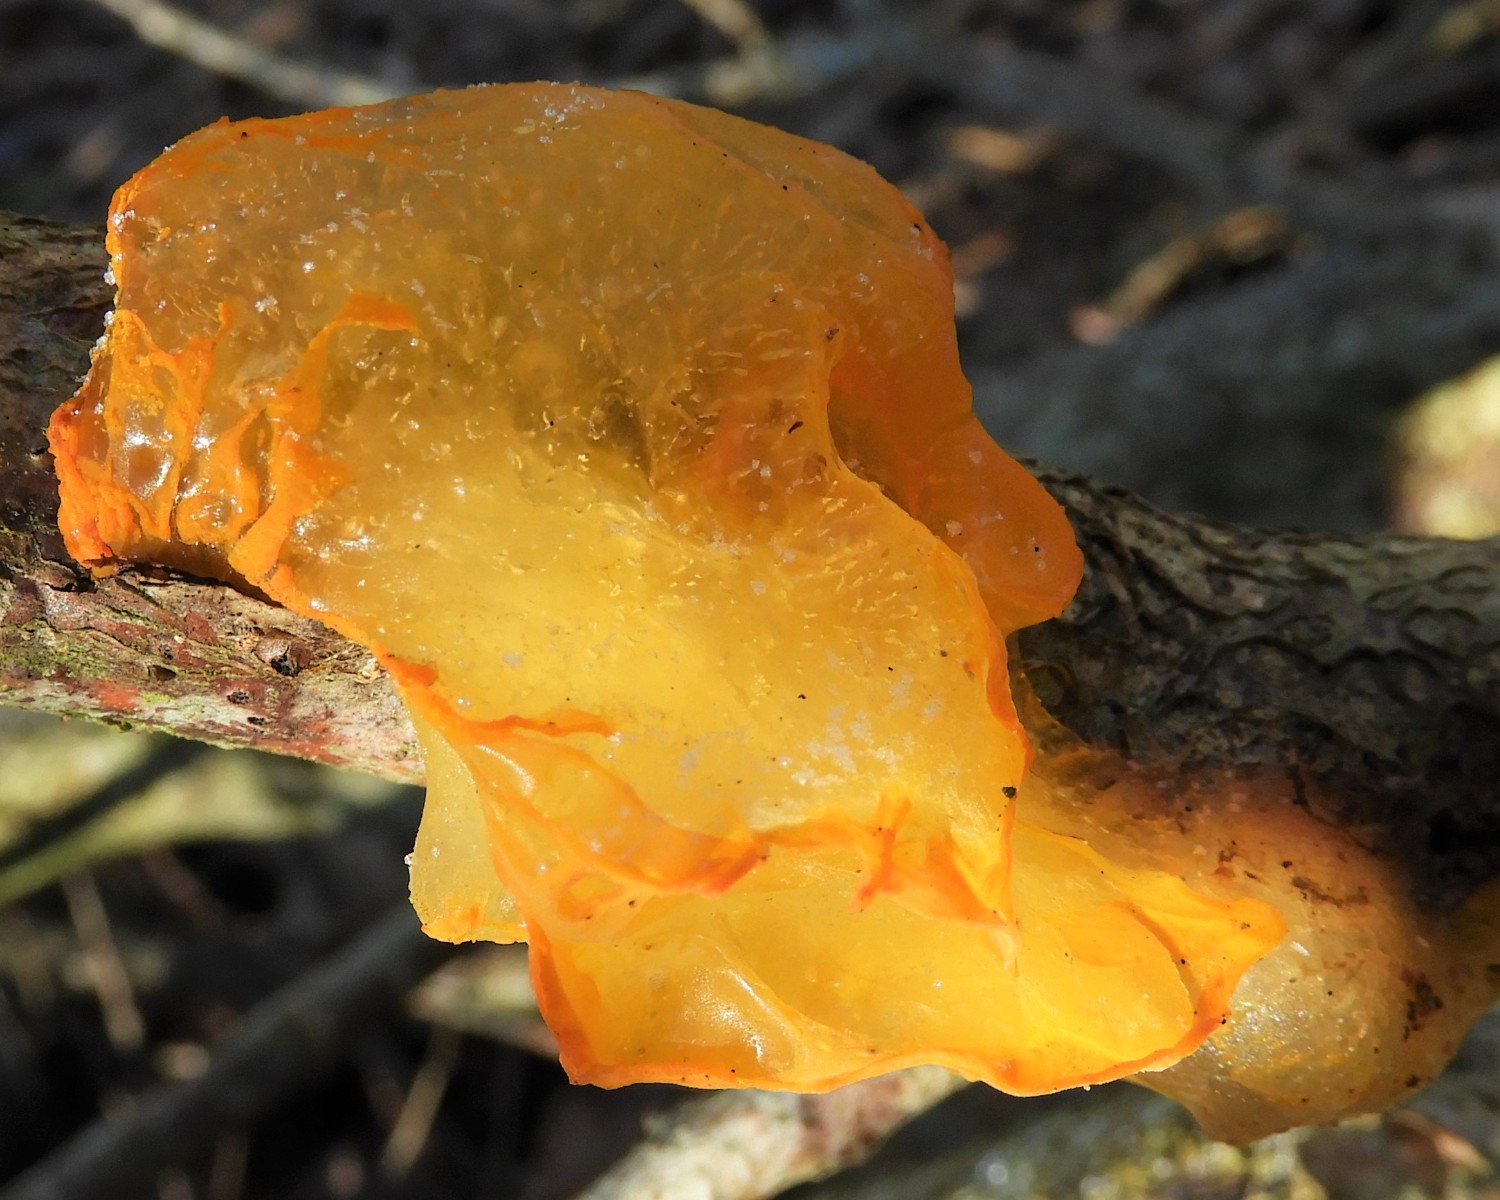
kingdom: Fungi
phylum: Basidiomycota
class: Tremellomycetes
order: Tremellales
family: Tremellaceae
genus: Tremella
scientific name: Tremella mesenterica
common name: gul bævresvamp
